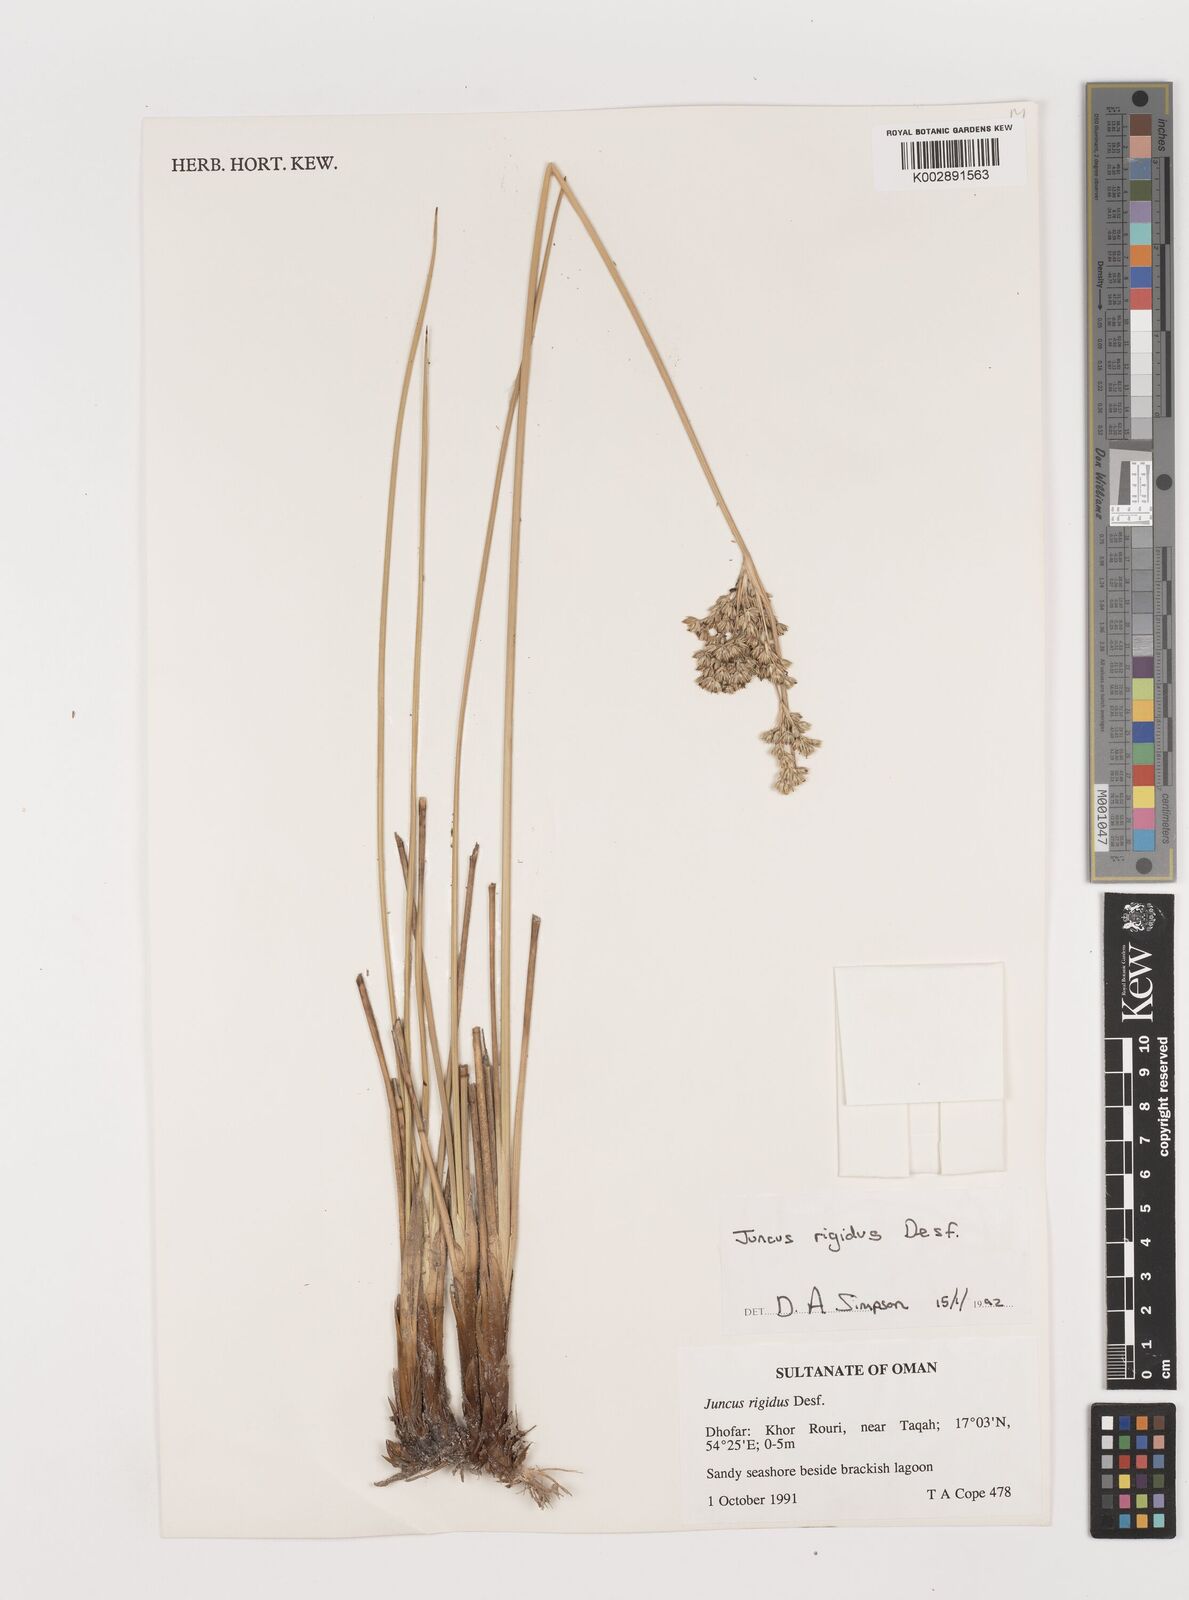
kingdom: Plantae
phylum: Tracheophyta
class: Liliopsida
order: Poales
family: Juncaceae
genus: Juncus
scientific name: Juncus rigidus
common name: Hard sea rush
